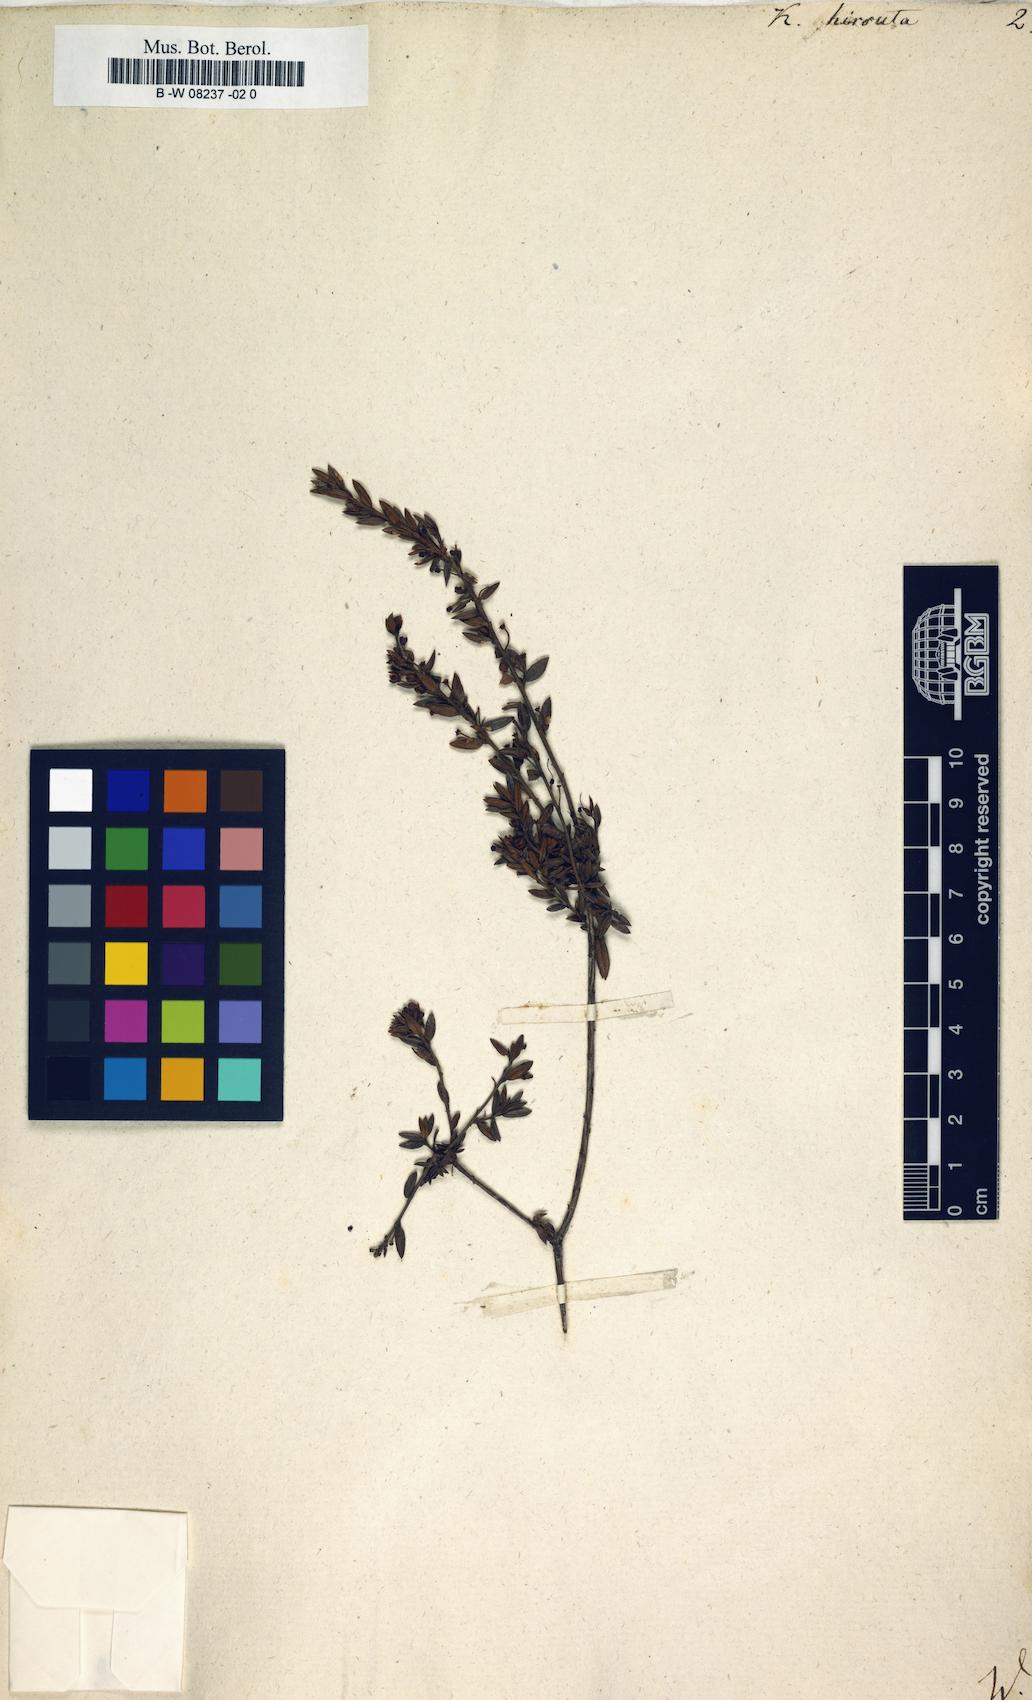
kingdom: Plantae
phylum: Tracheophyta
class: Magnoliopsida
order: Ericales
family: Ericaceae
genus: Kalmia
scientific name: Kalmia hirsuta
